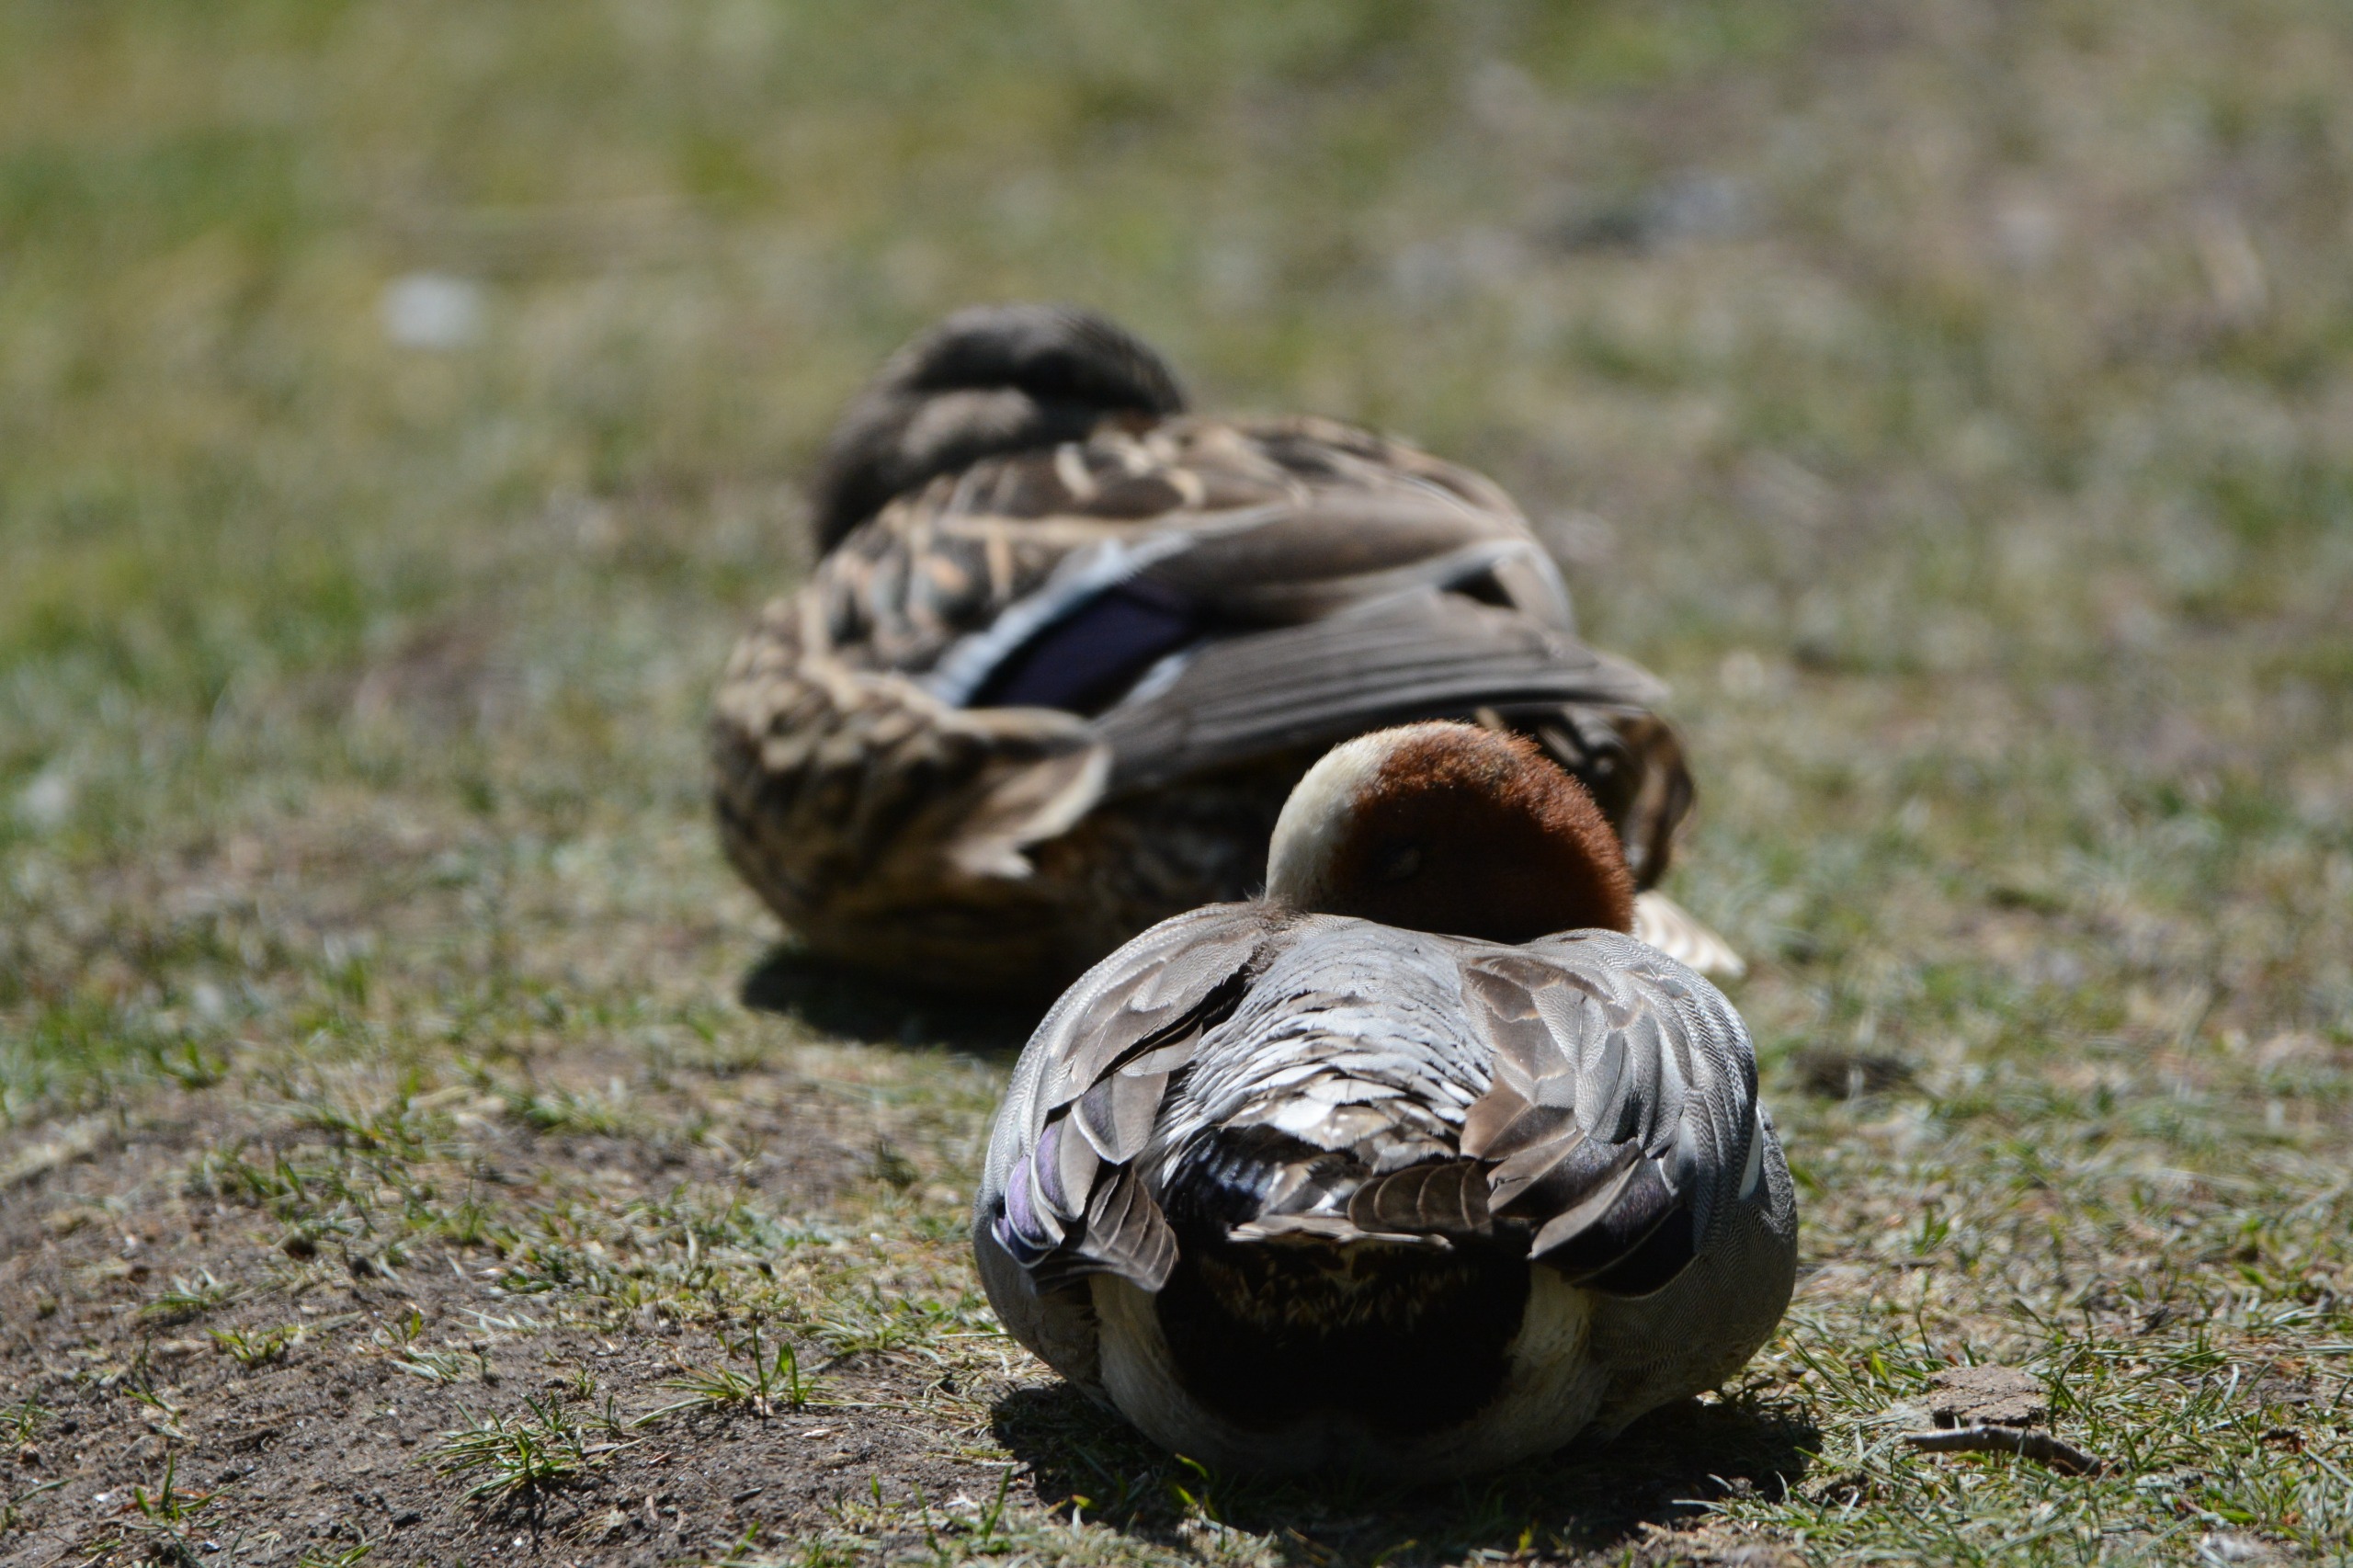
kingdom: Animalia
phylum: Chordata
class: Aves
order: Anseriformes
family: Anatidae
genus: Mareca
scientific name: Mareca penelope
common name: Pibeand
